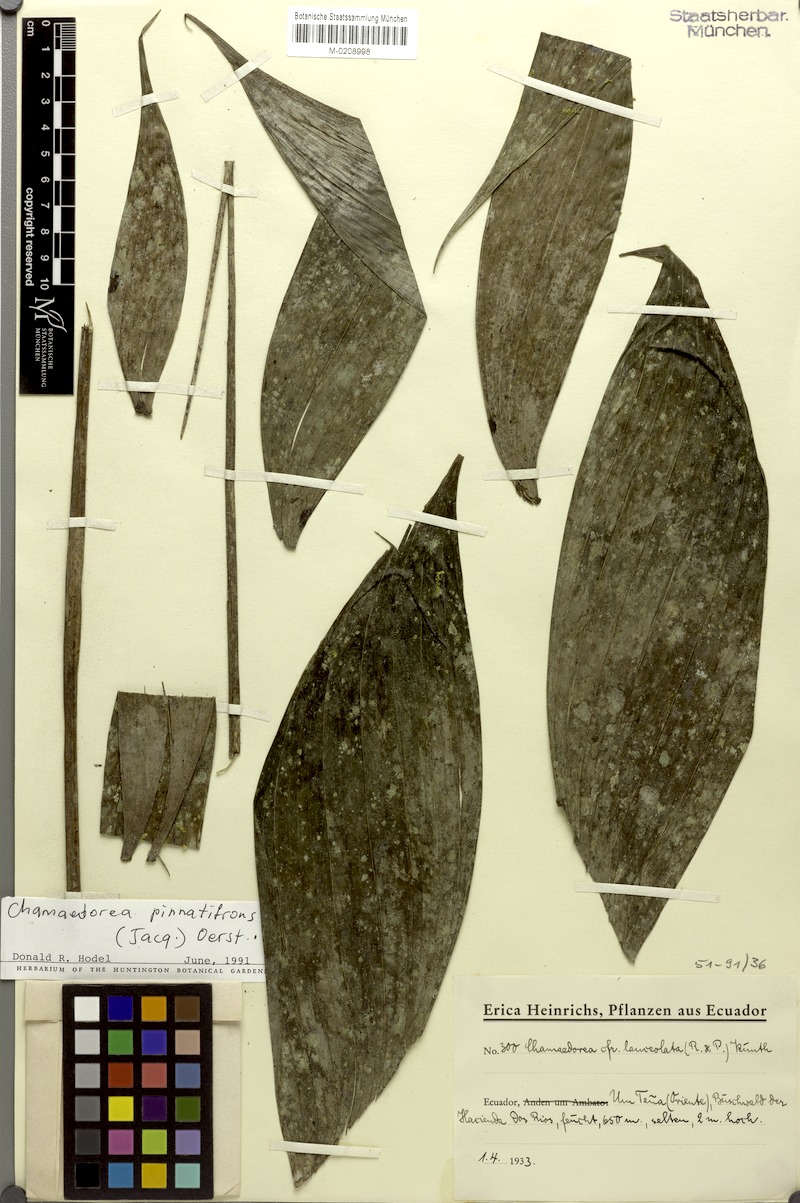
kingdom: Plantae
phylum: Tracheophyta
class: Liliopsida
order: Arecales
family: Arecaceae
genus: Chamaedorea
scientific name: Chamaedorea pinnatifrons
